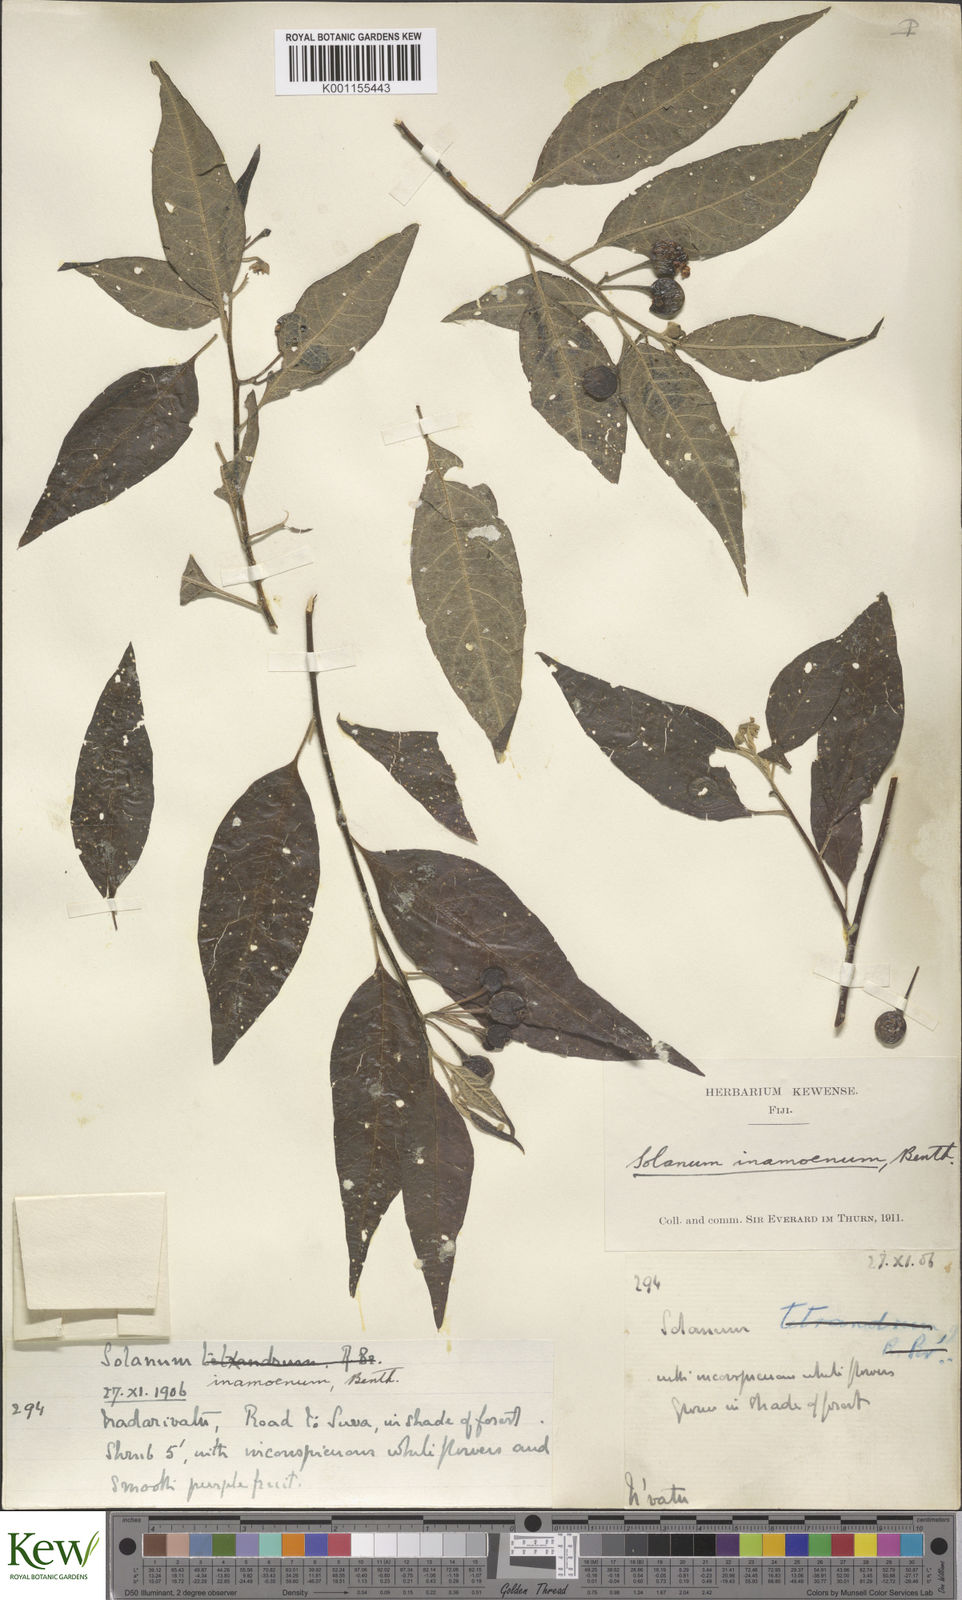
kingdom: Plantae
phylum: Tracheophyta
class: Magnoliopsida
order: Solanales
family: Solanaceae
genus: Solanum
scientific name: Solanum inamoenum
